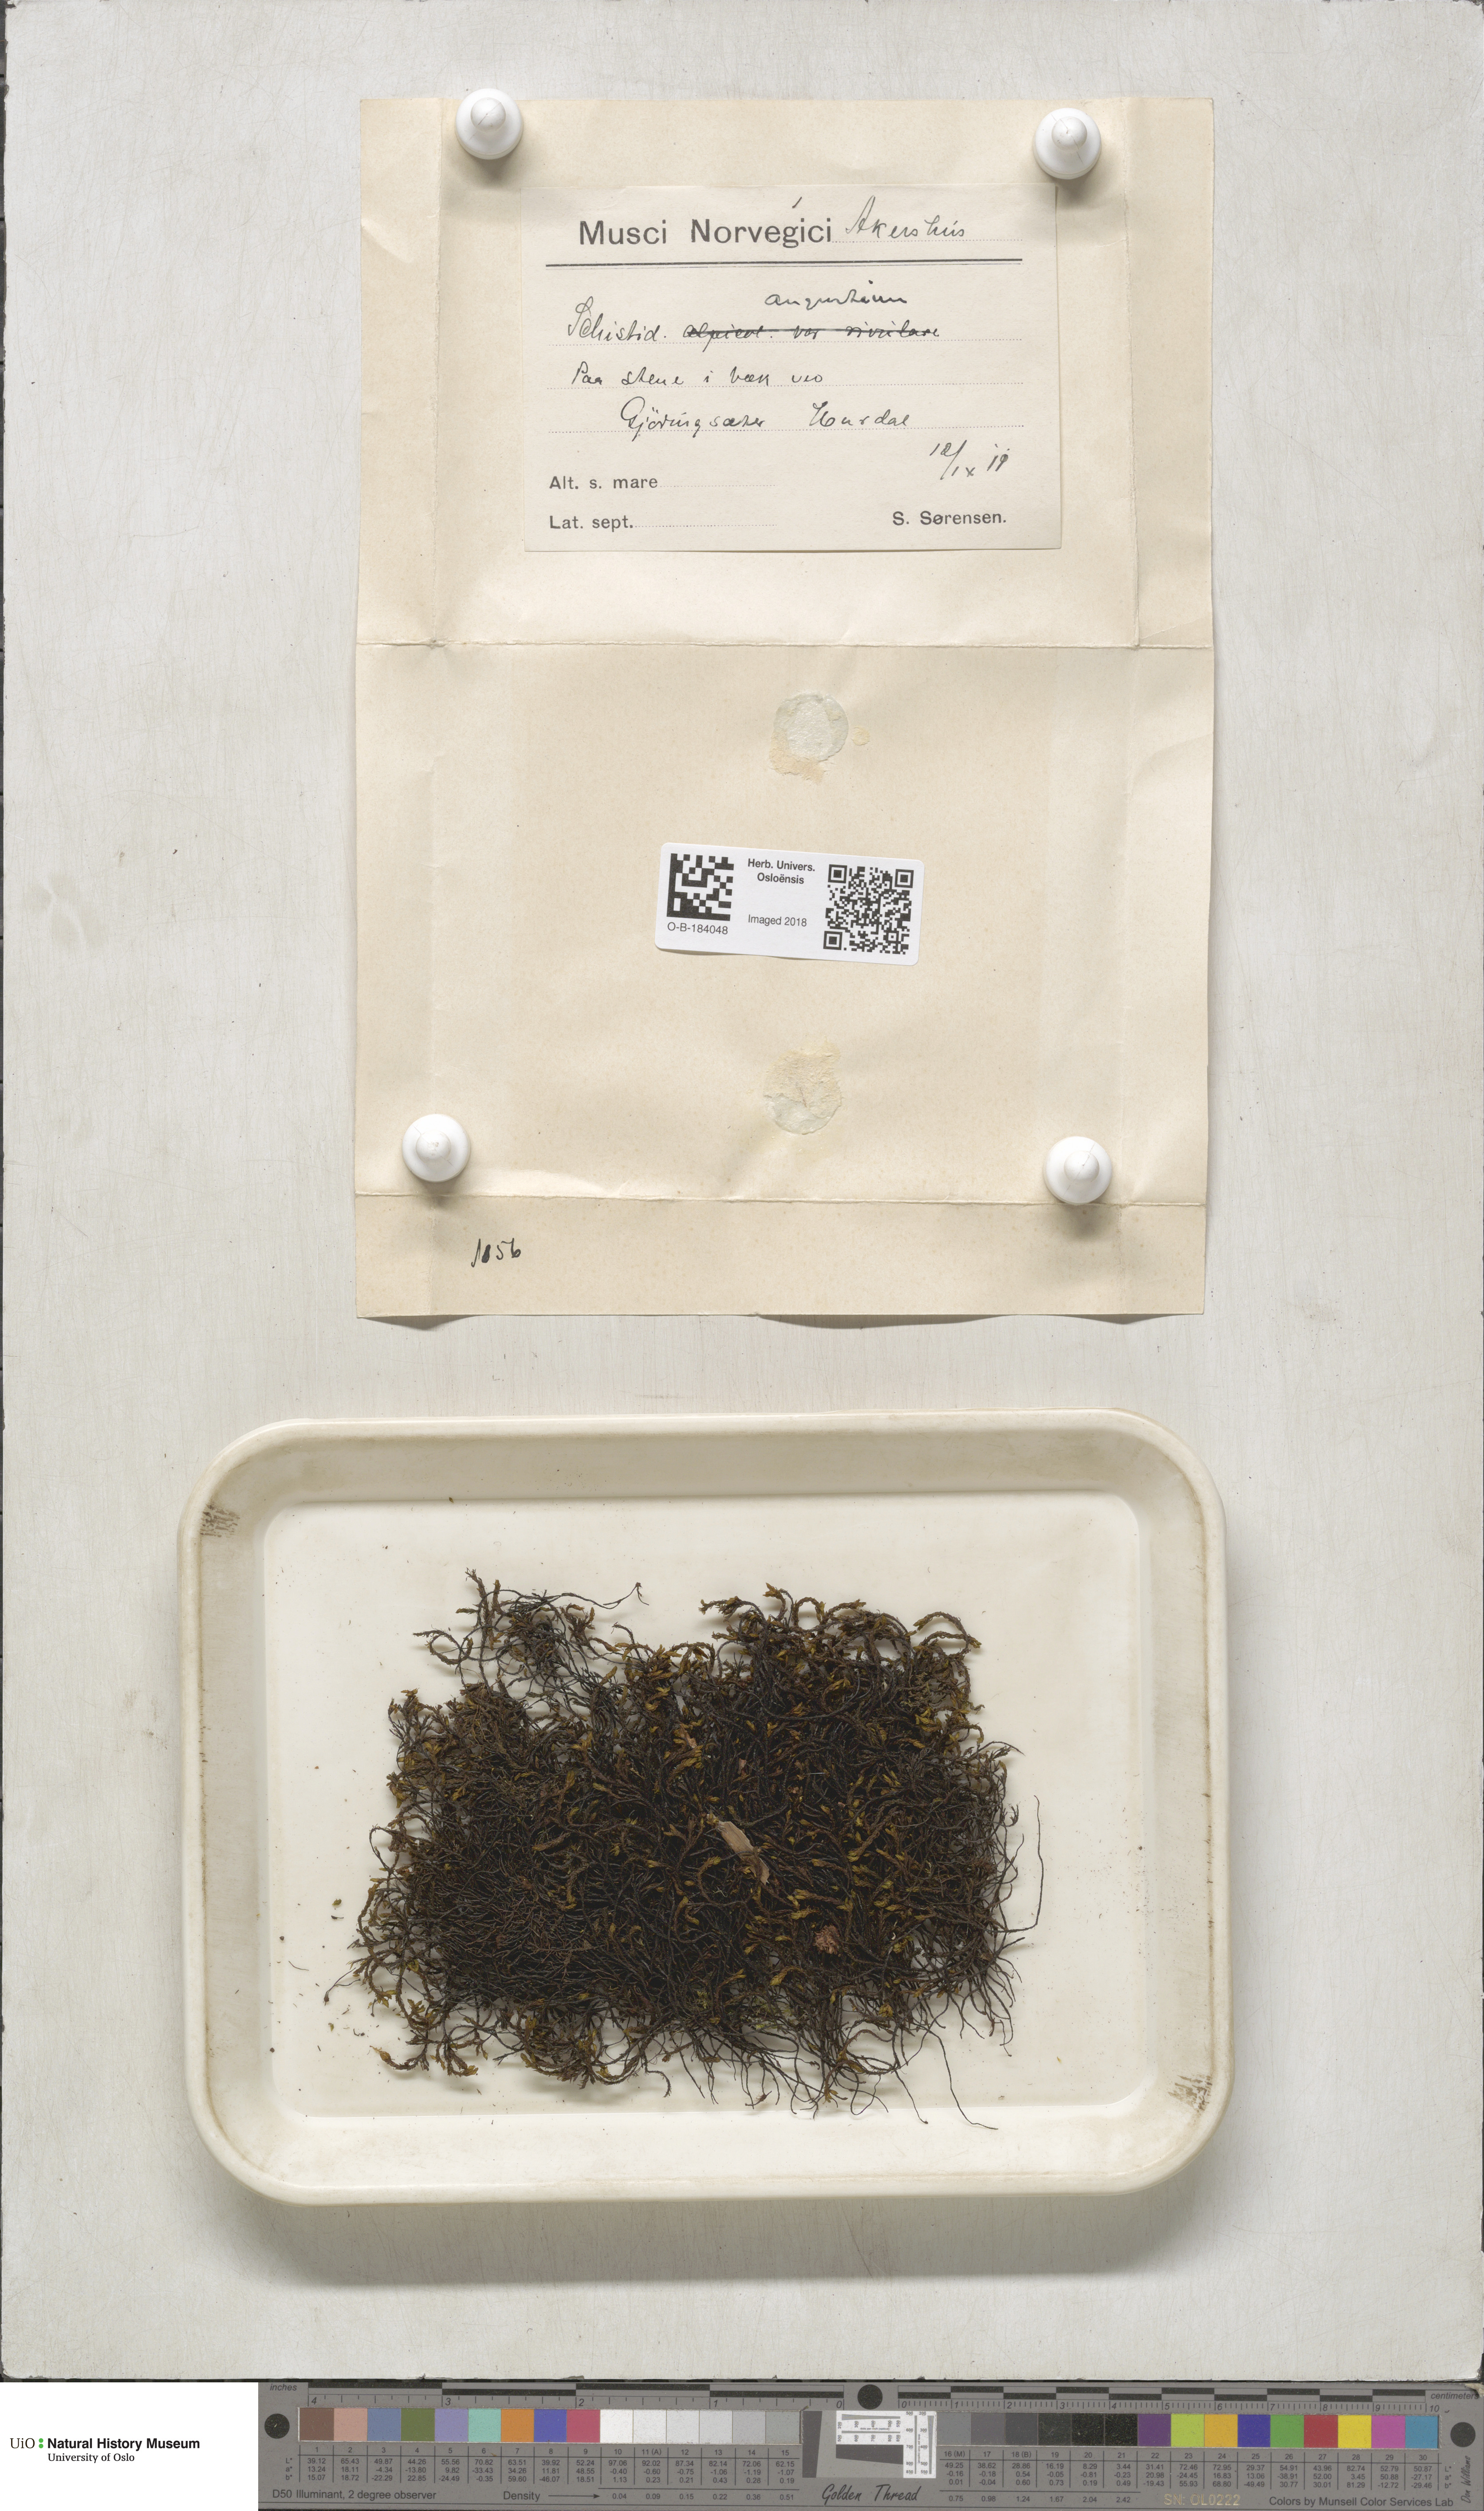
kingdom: Plantae
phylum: Bryophyta
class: Bryopsida
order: Grimmiales
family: Grimmiaceae
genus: Schistidium
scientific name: Schistidium agassizii
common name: Agassiz's bloom moss
